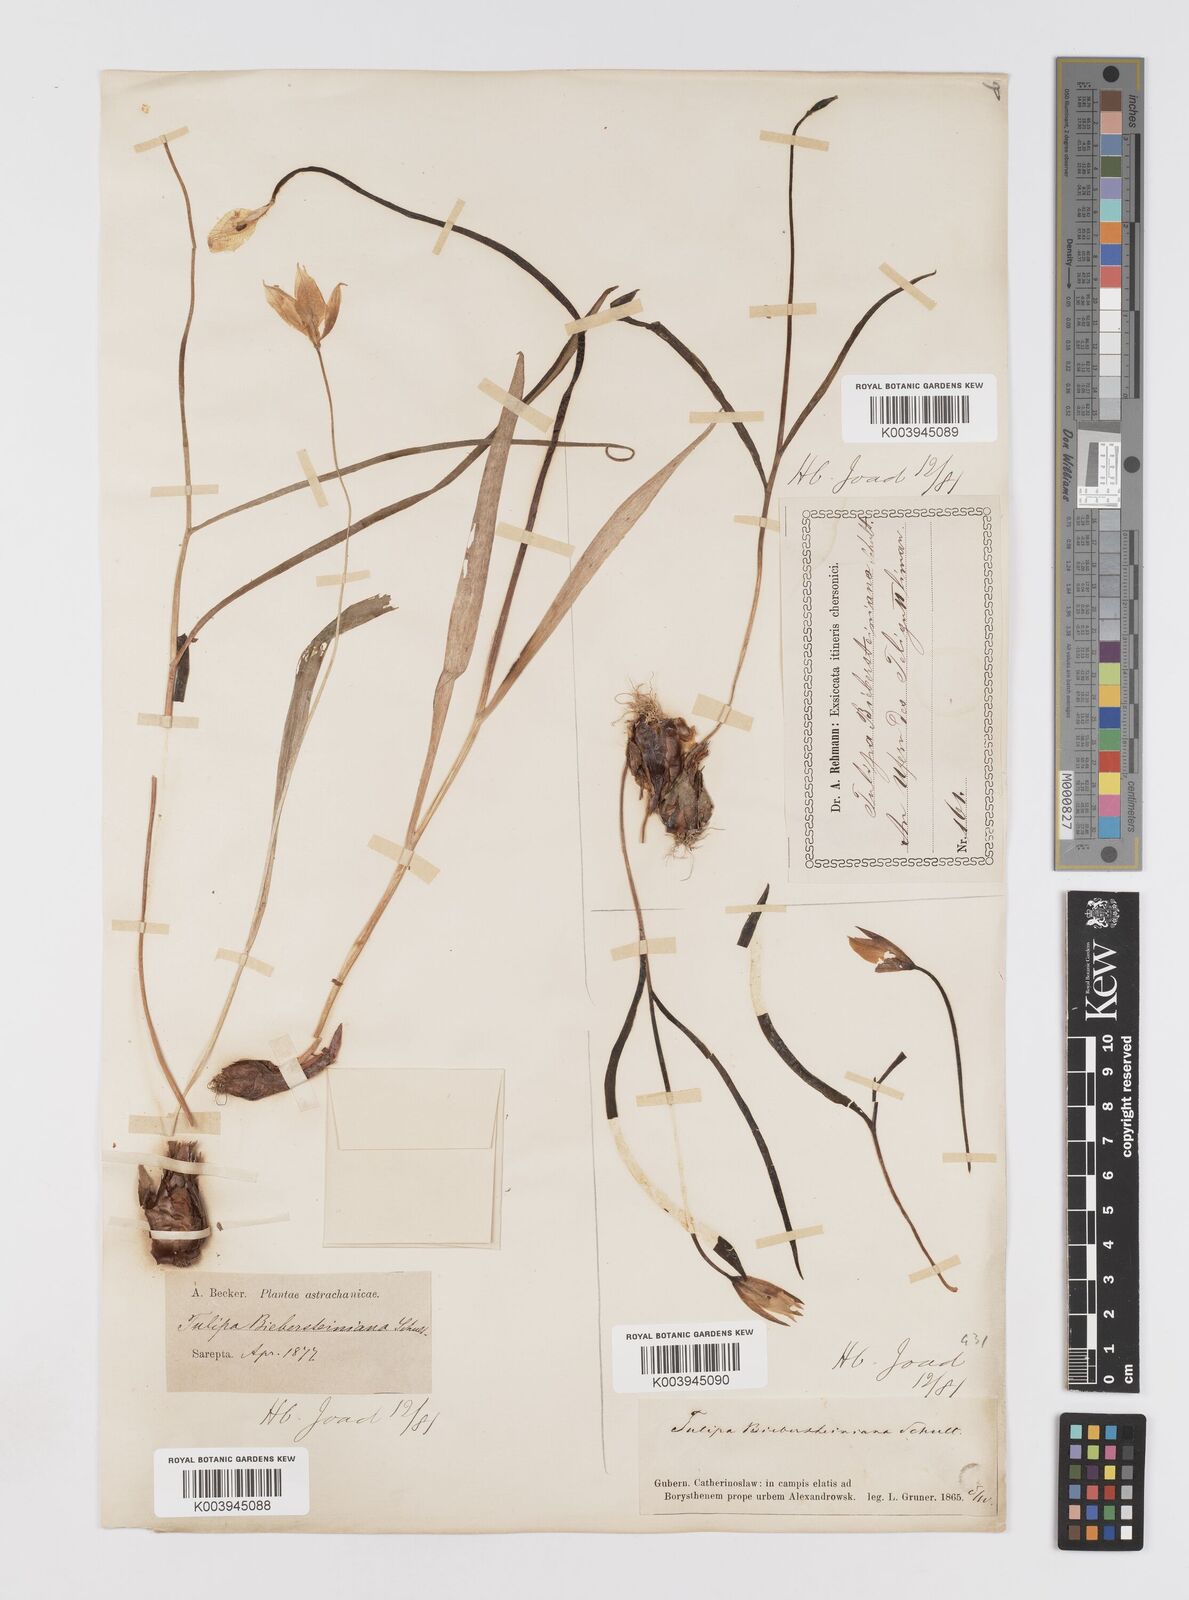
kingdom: Plantae
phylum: Tracheophyta
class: Liliopsida
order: Liliales
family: Liliaceae
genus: Tulipa
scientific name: Tulipa sylvestris
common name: Wild tulip
